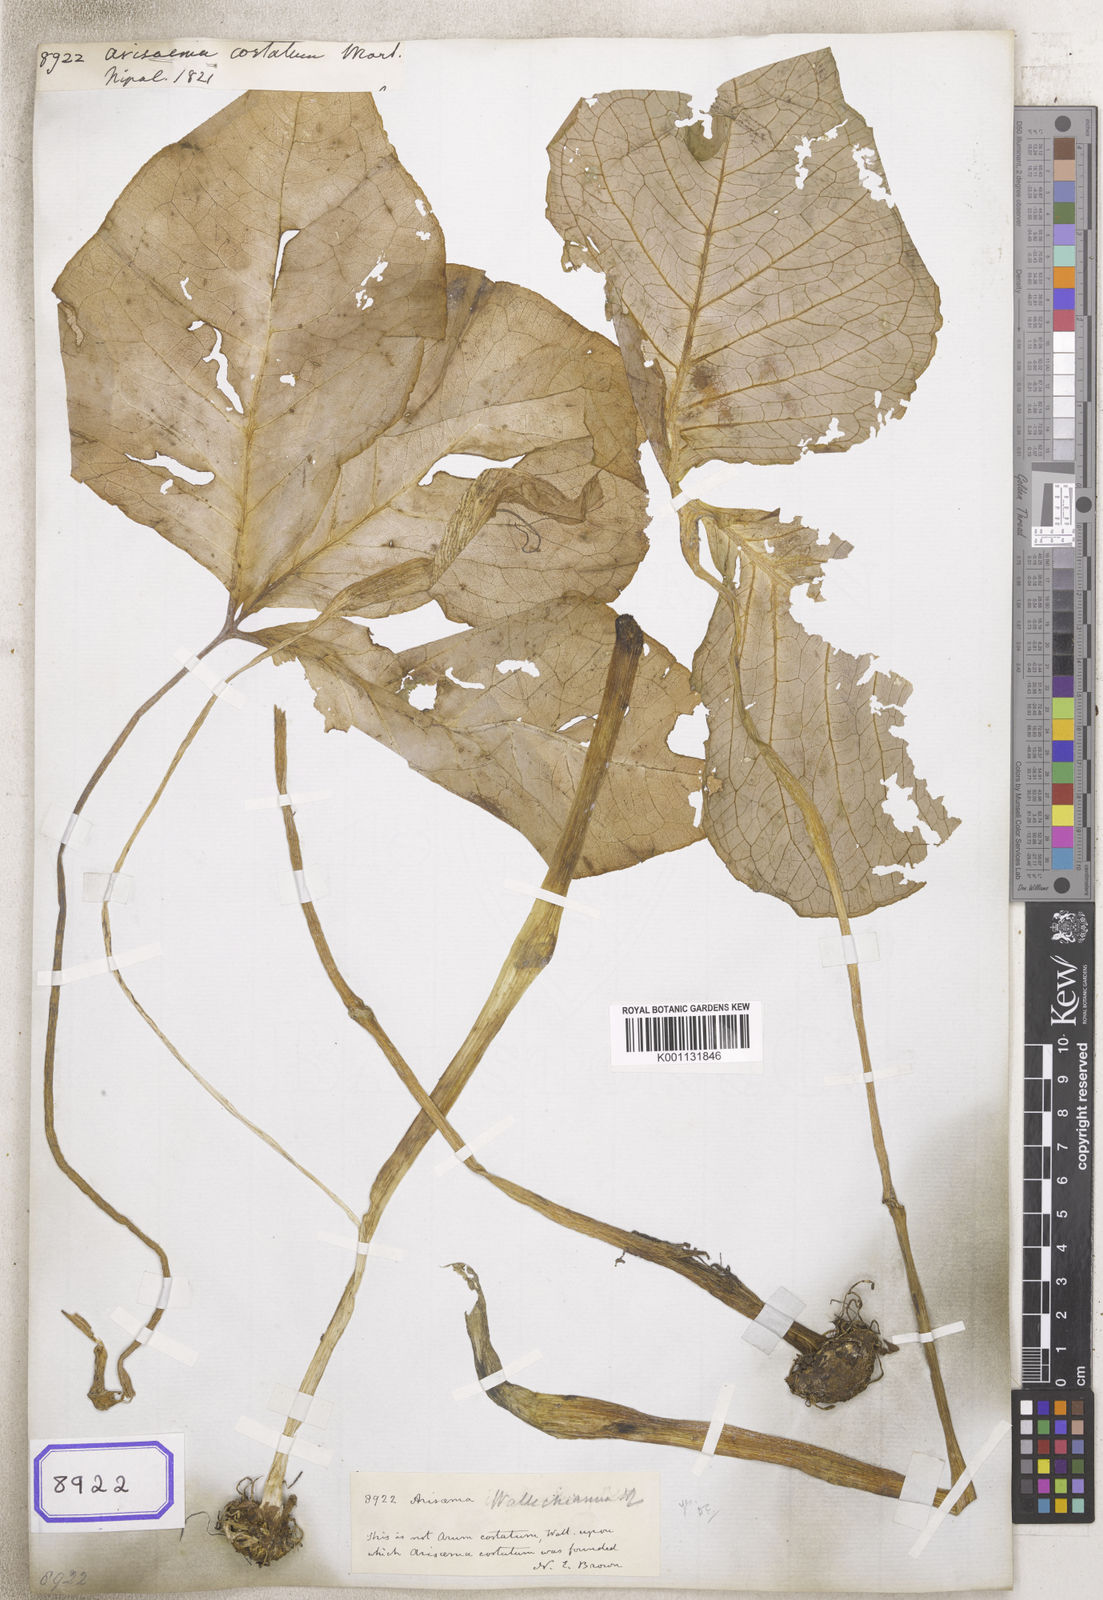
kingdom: Plantae
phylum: Tracheophyta
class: Liliopsida
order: Alismatales
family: Araceae
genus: Arisaema
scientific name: Arisaema costatum
